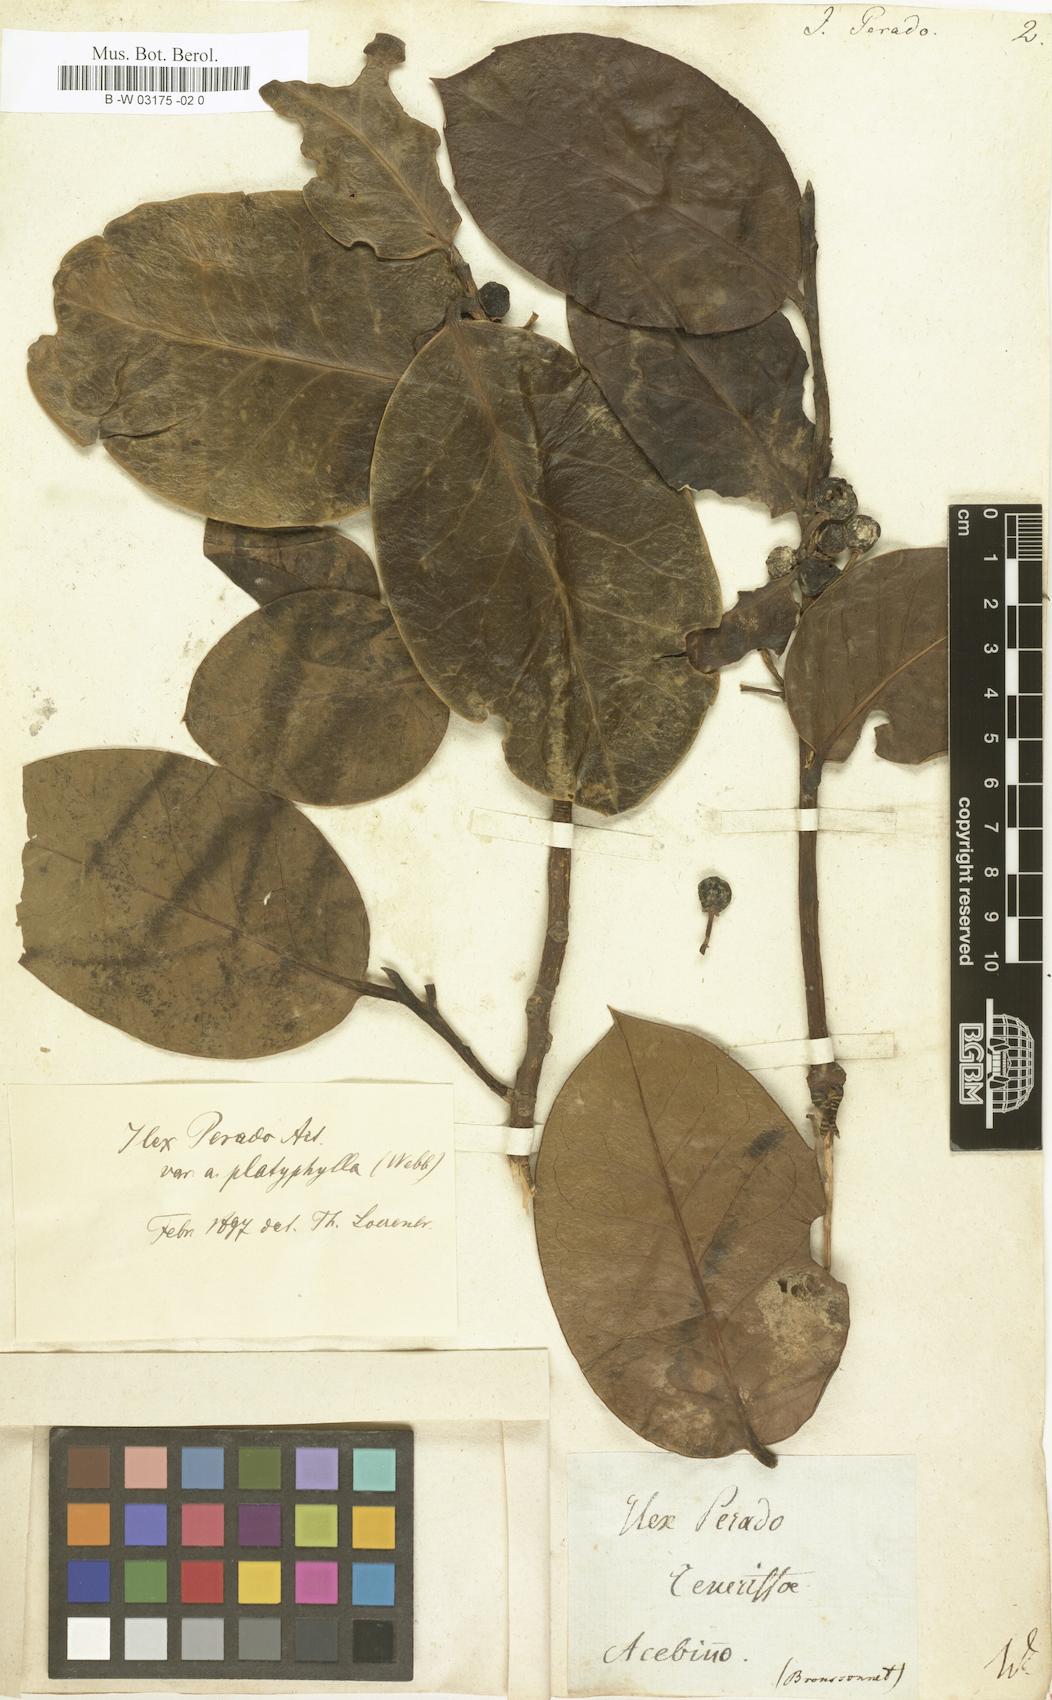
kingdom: Plantae
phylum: Tracheophyta
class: Magnoliopsida
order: Aquifoliales
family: Aquifoliaceae
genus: Ilex
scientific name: Ilex perado
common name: Madeira holly
